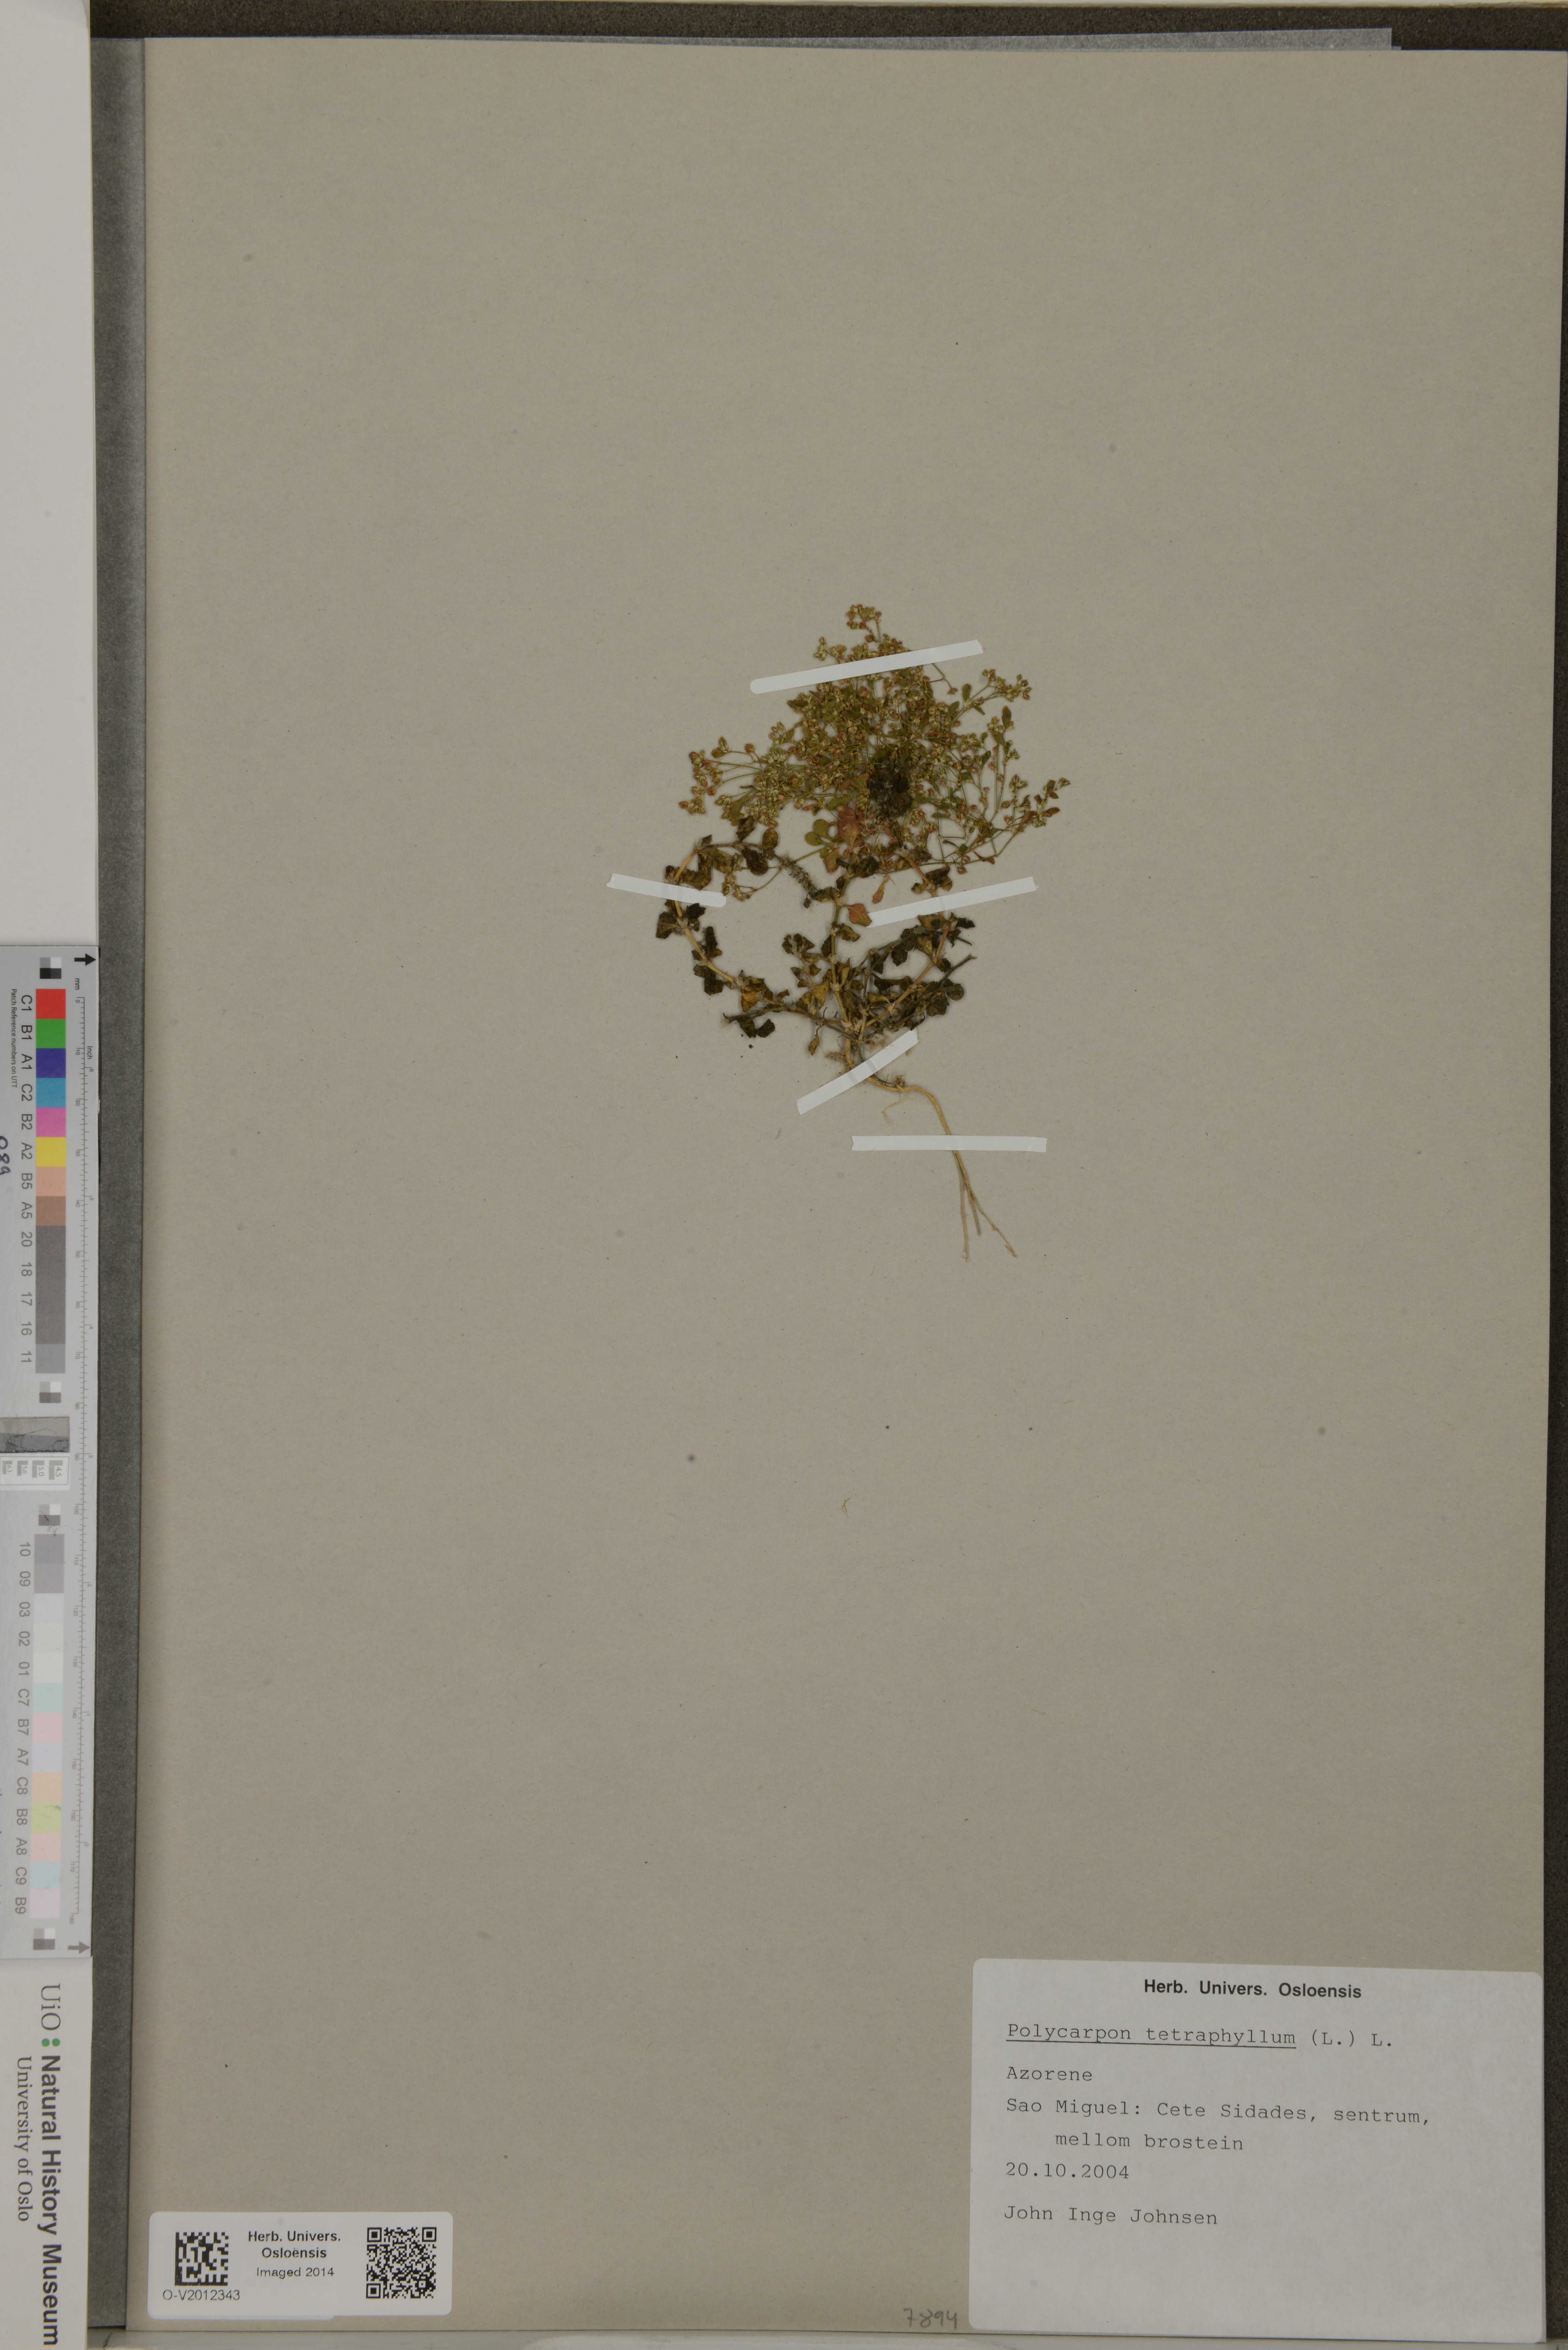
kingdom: Plantae
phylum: Tracheophyta
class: Magnoliopsida
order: Caryophyllales
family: Caryophyllaceae
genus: Polycarpon
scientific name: Polycarpon tetraphyllum
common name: Four-leaved all-seed
